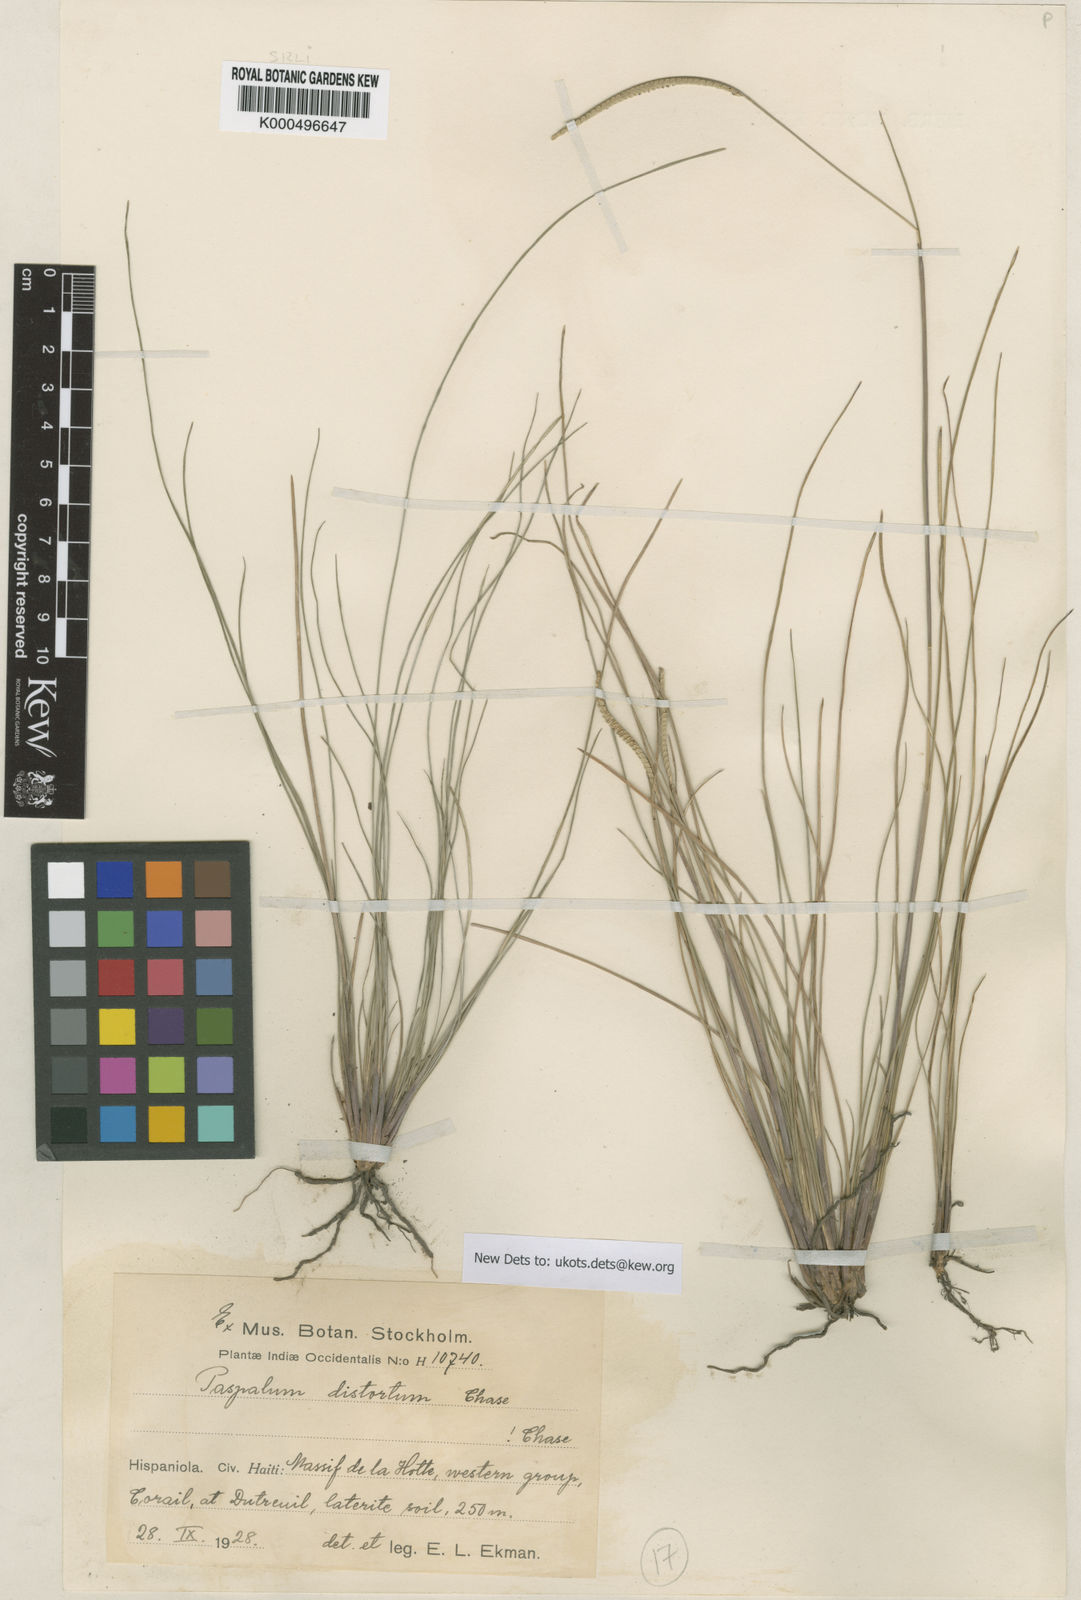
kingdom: Plantae
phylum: Tracheophyta
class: Liliopsida
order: Poales
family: Poaceae
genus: Paspalum
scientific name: Paspalum distortum
